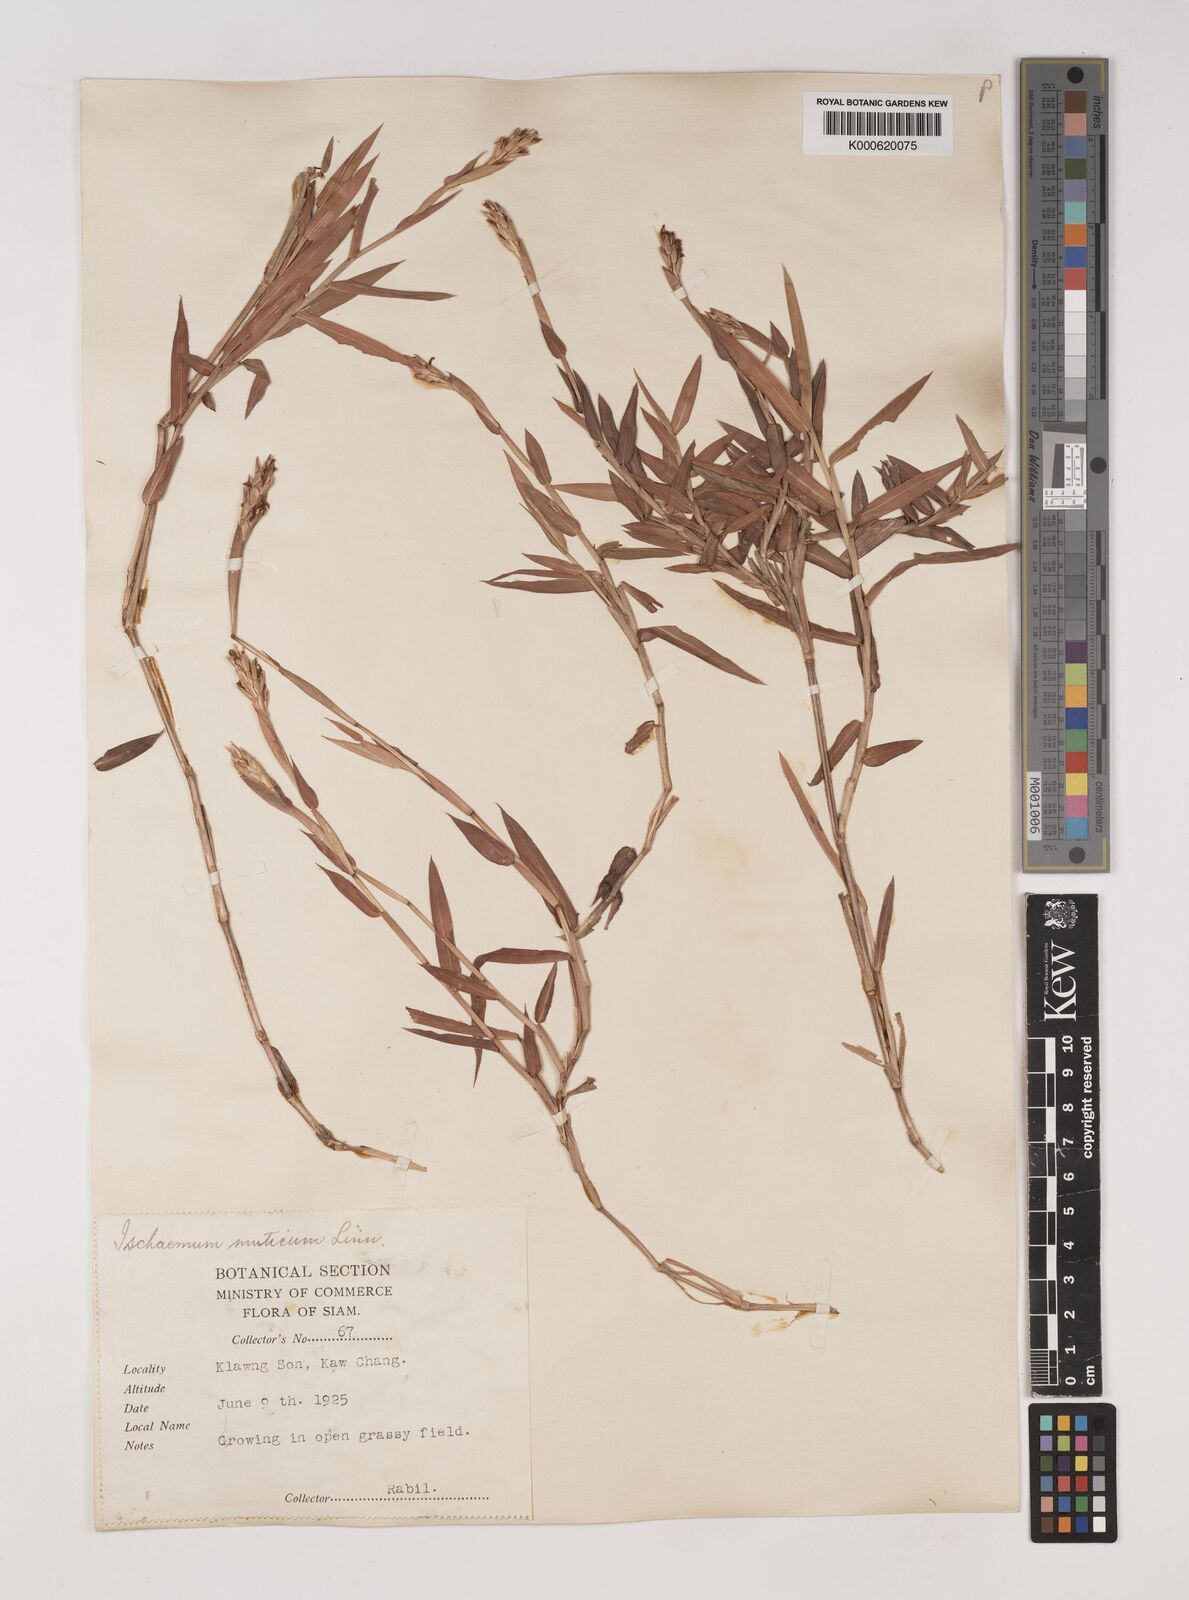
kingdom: Plantae
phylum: Tracheophyta
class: Liliopsida
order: Poales
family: Poaceae
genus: Ischaemum
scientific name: Ischaemum muticum
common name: Drought grass
